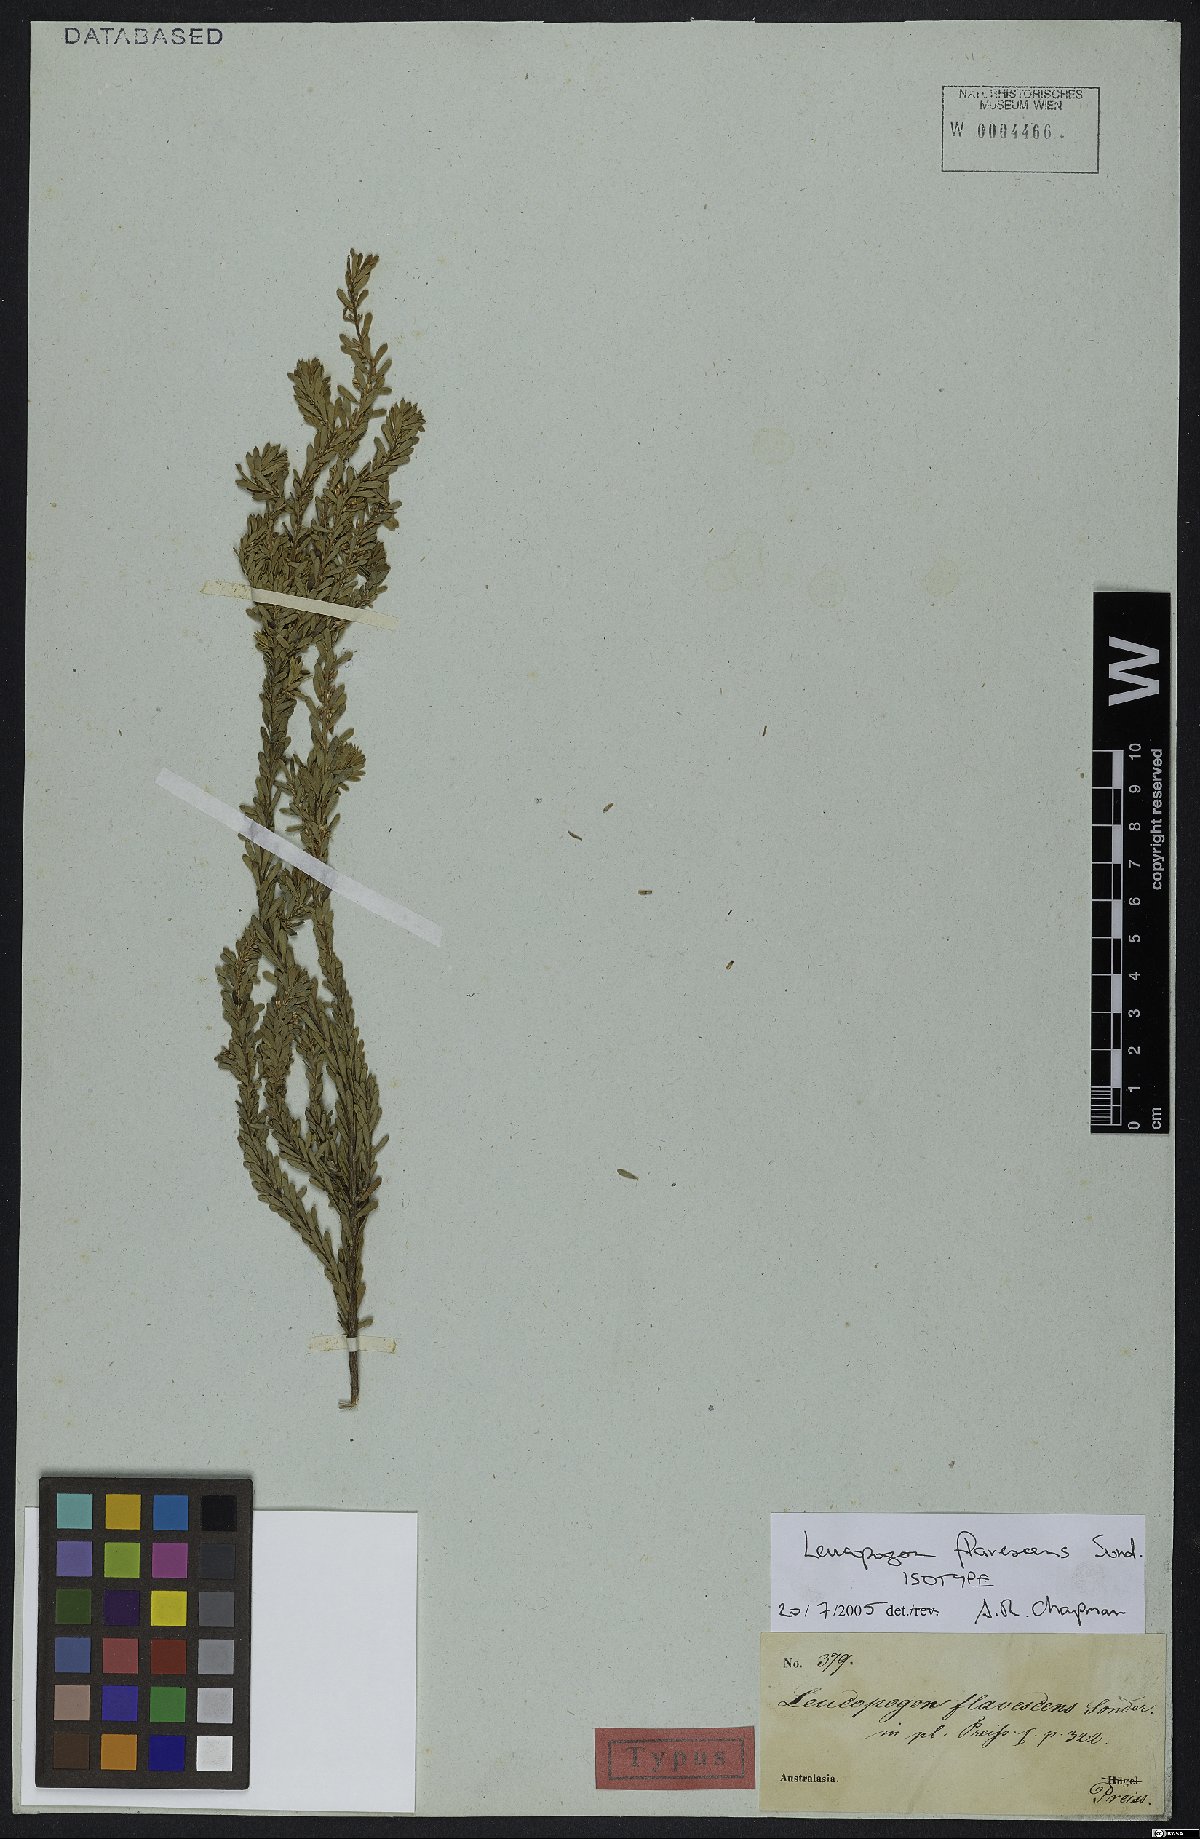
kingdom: Plantae
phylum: Tracheophyta
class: Magnoliopsida
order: Ericales
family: Ericaceae
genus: Styphelia
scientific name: Styphelia flavescens
